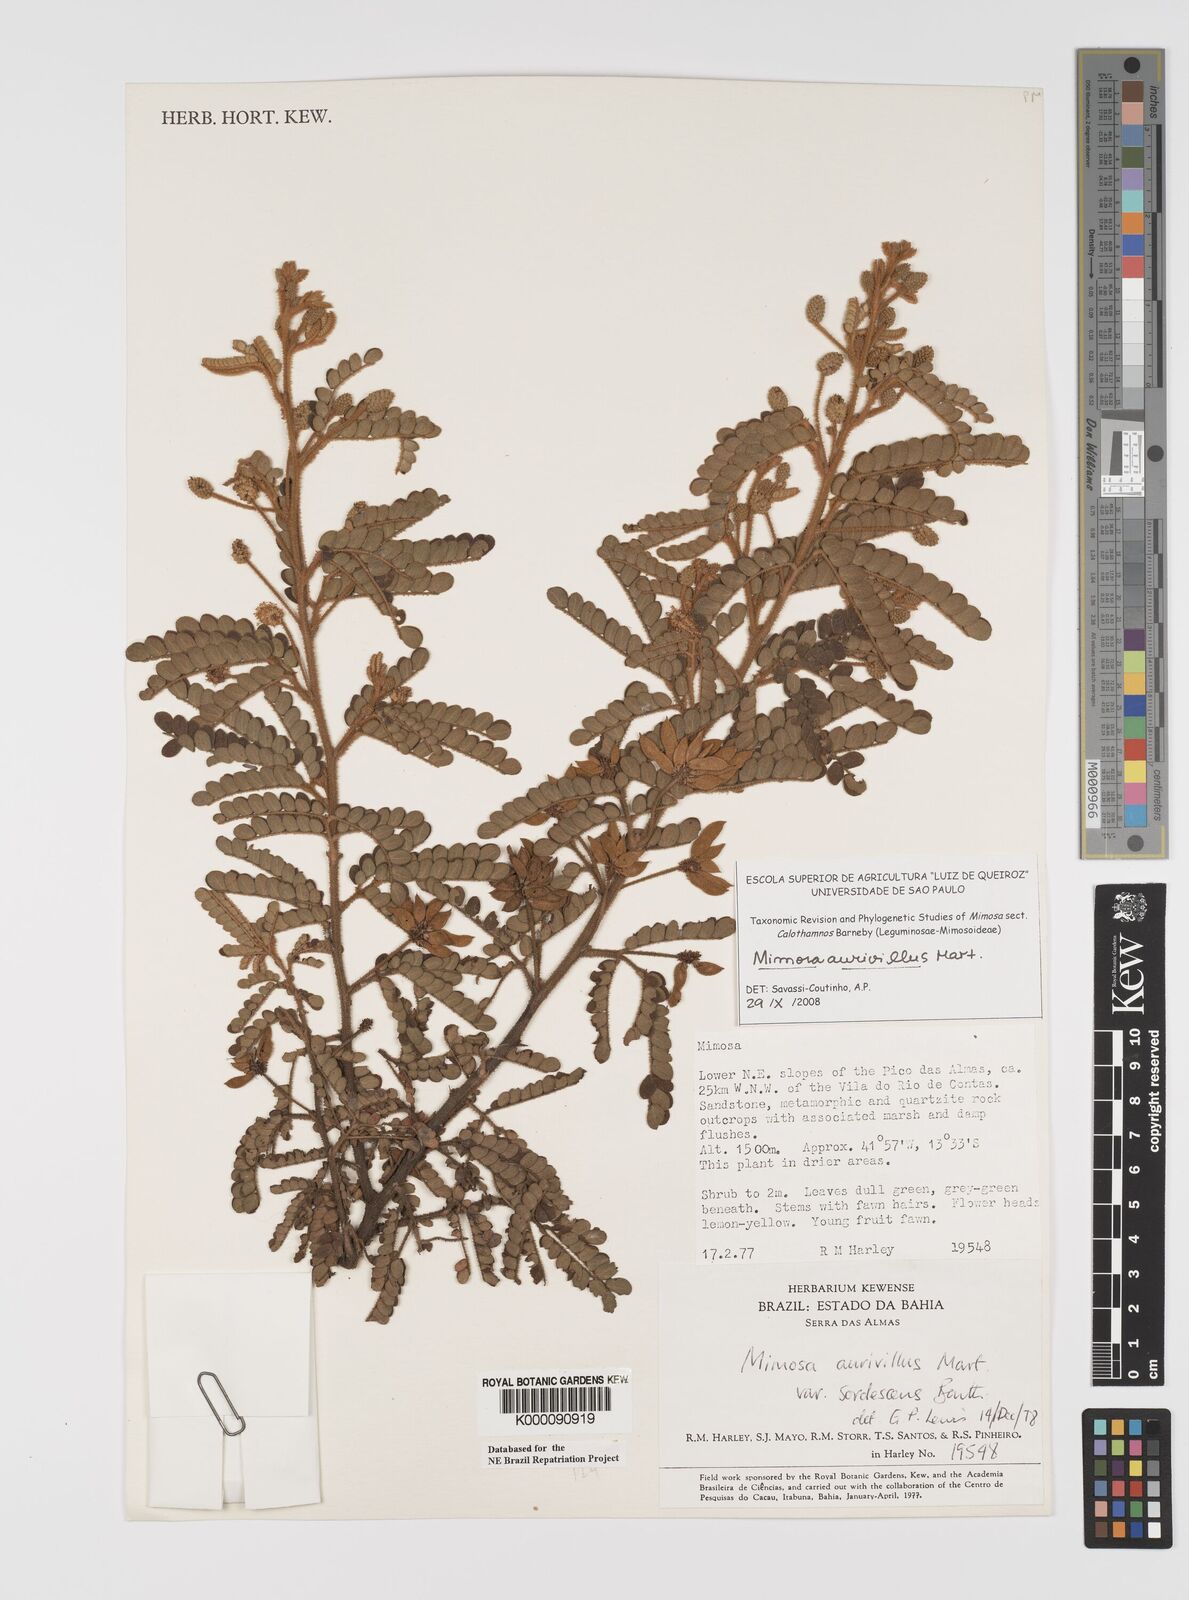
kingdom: Plantae
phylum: Tracheophyta
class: Magnoliopsida
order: Fabales
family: Fabaceae
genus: Mimosa
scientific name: Mimosa aurivillus
